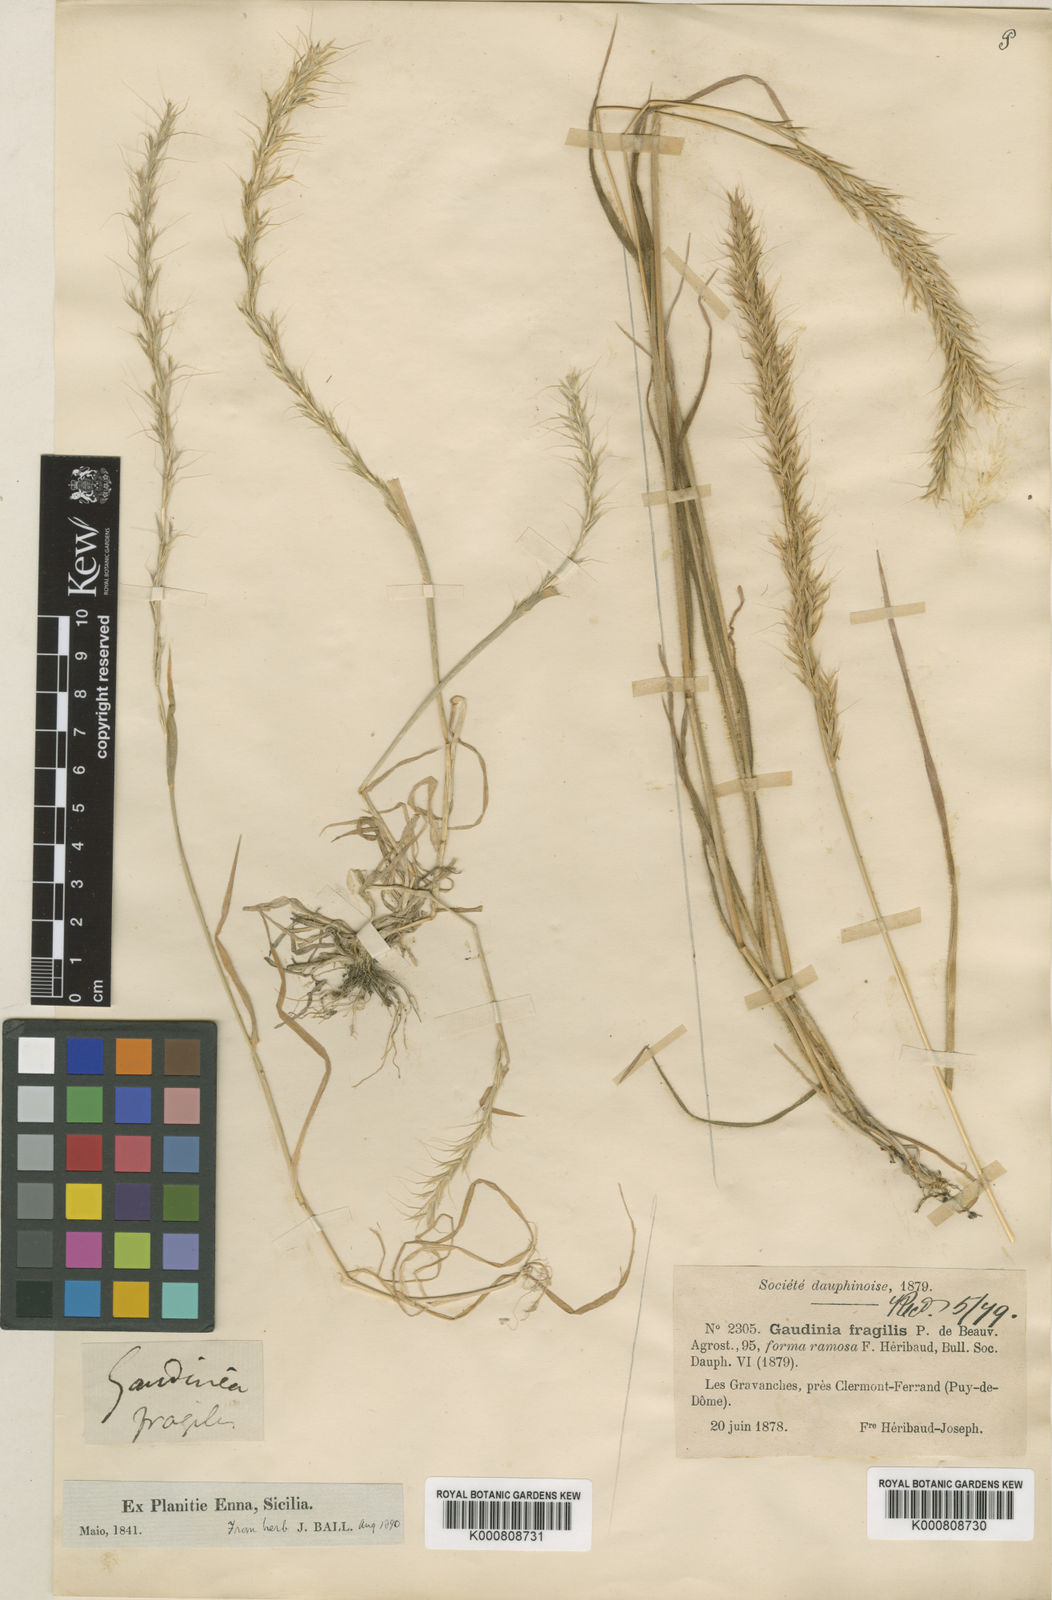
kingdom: Plantae
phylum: Tracheophyta
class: Liliopsida
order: Poales
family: Poaceae
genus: Gaudinia
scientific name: Gaudinia fragilis
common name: French oat-grass
